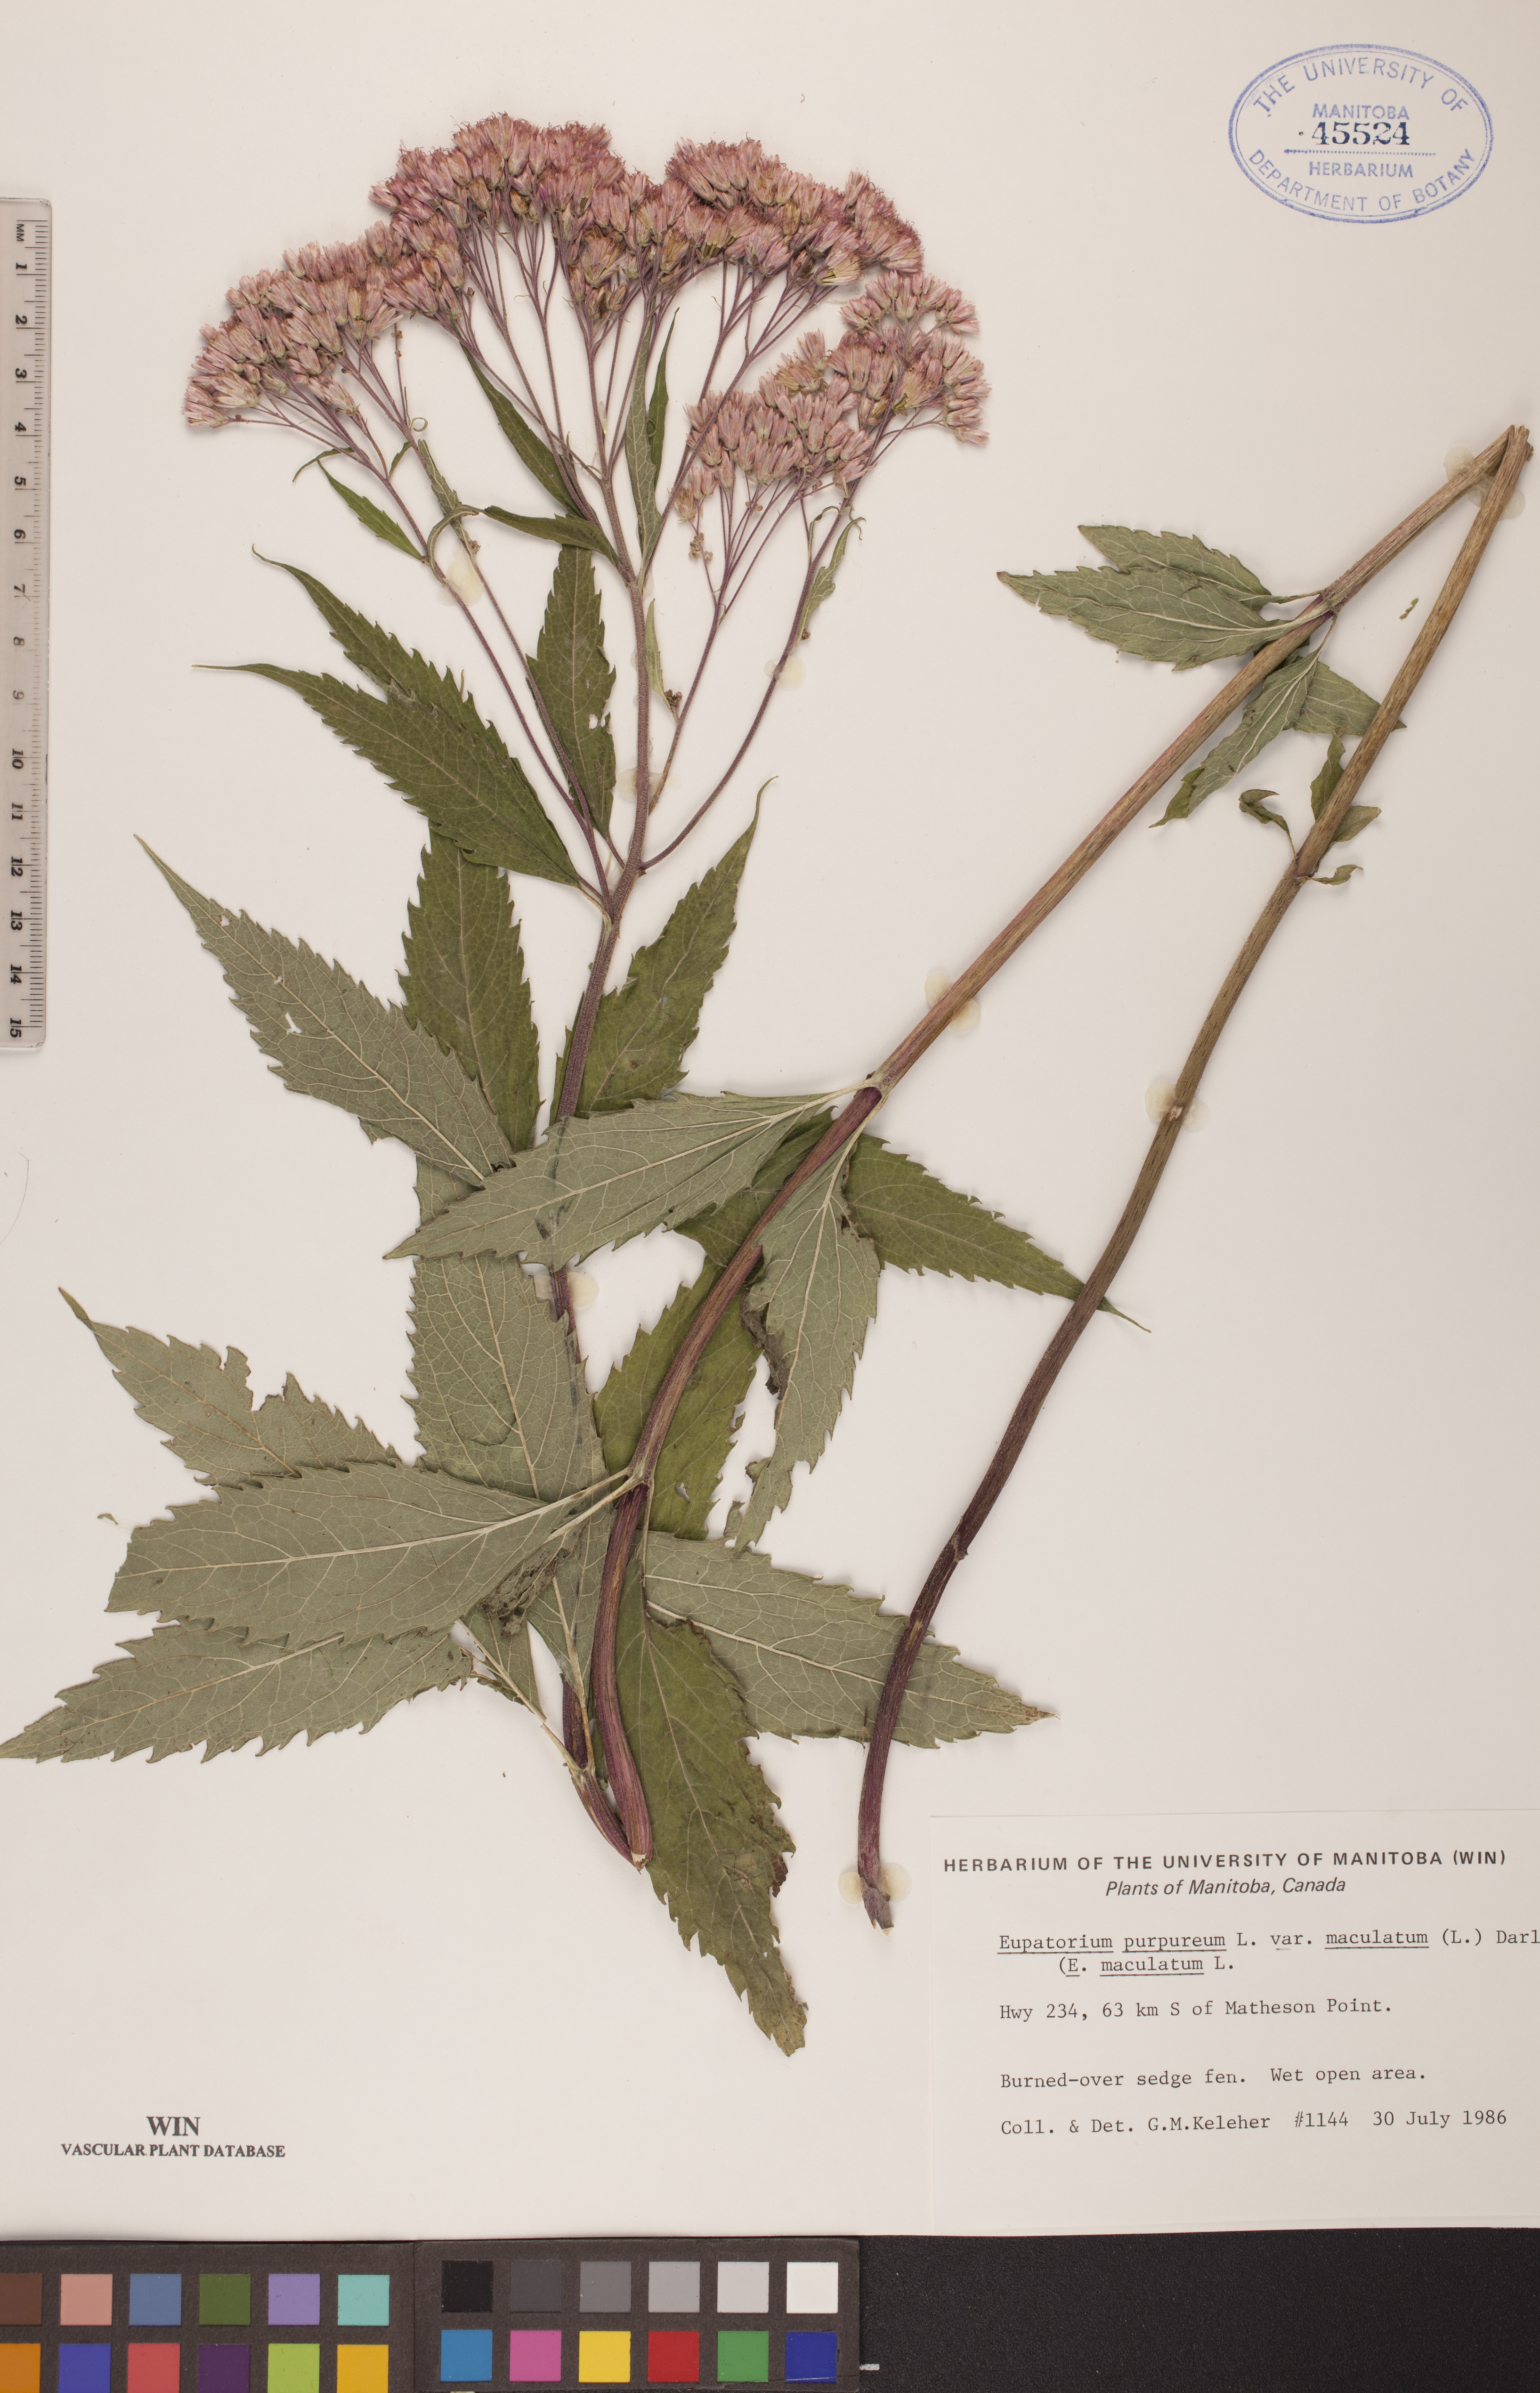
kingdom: Plantae
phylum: Tracheophyta
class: Magnoliopsida
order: Asterales
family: Asteraceae
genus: Eutrochium
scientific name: Eutrochium maculatum
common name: Spotted joe pye weed
